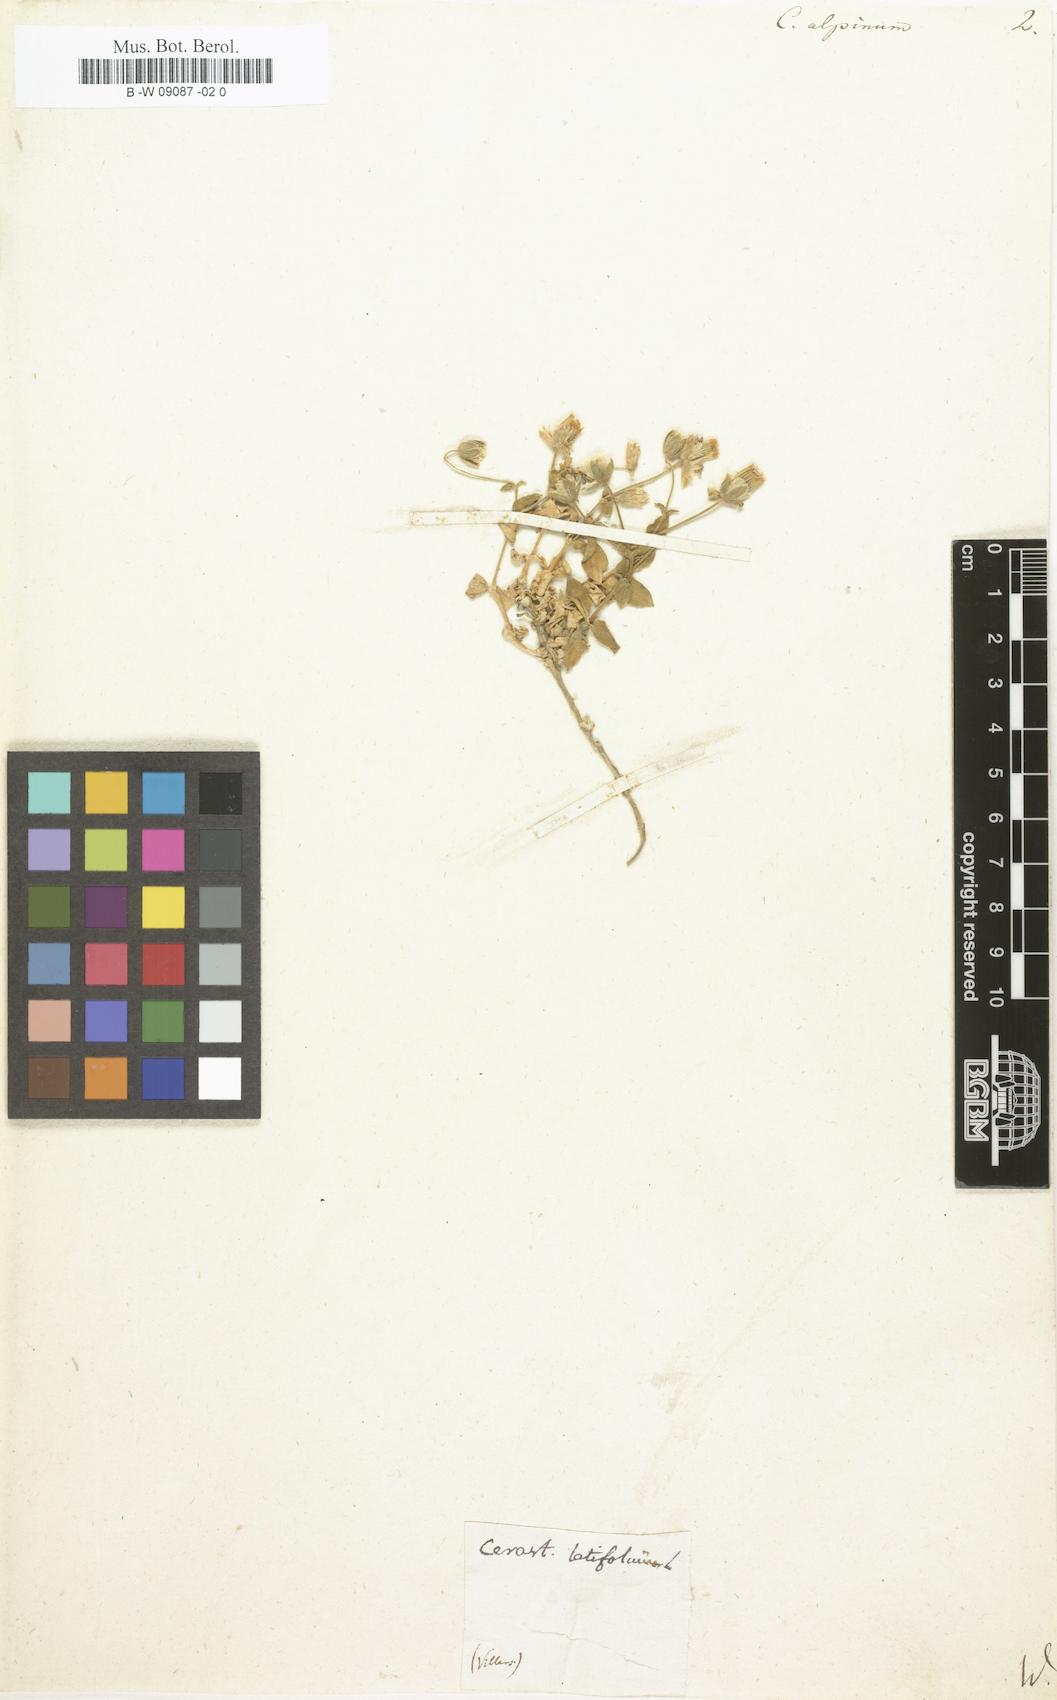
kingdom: Plantae
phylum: Tracheophyta
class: Magnoliopsida
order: Caryophyllales
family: Caryophyllaceae
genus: Cerastium
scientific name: Cerastium alpinum
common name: Alpine mouse-ear
